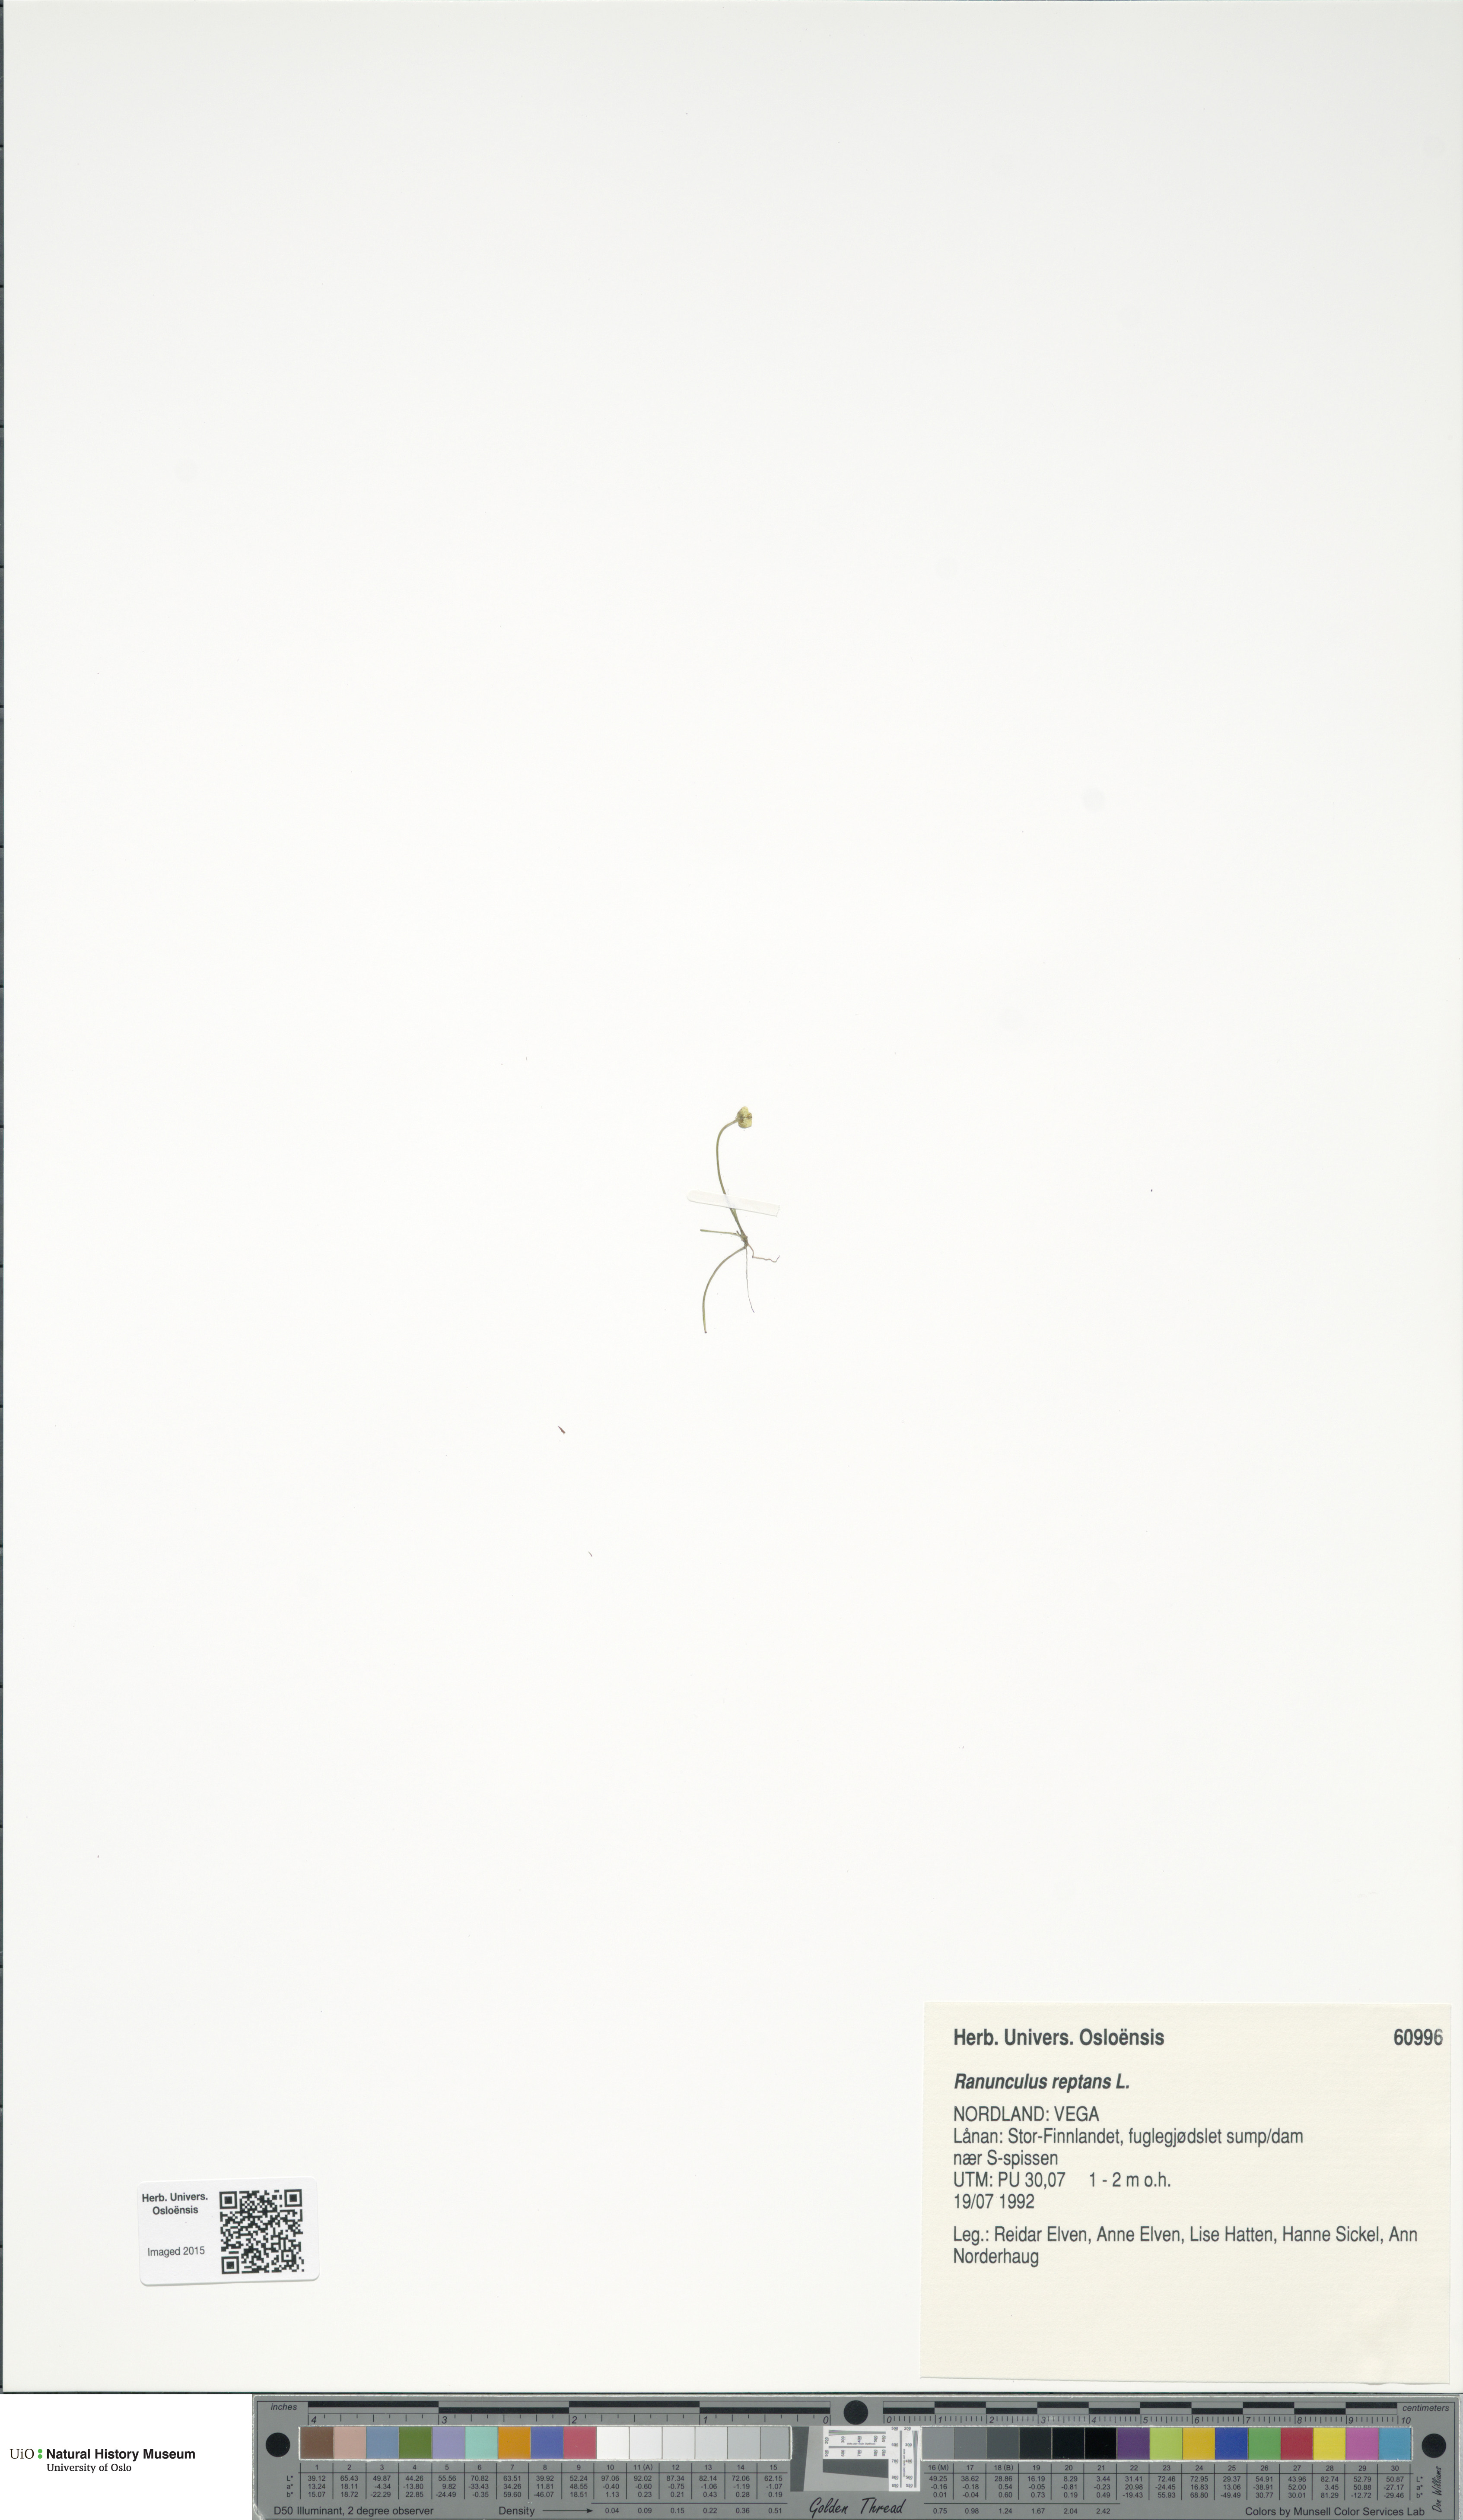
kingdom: Plantae
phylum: Tracheophyta
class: Magnoliopsida
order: Ranunculales
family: Ranunculaceae
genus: Ranunculus
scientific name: Ranunculus reptans
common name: Creeping spearwort
